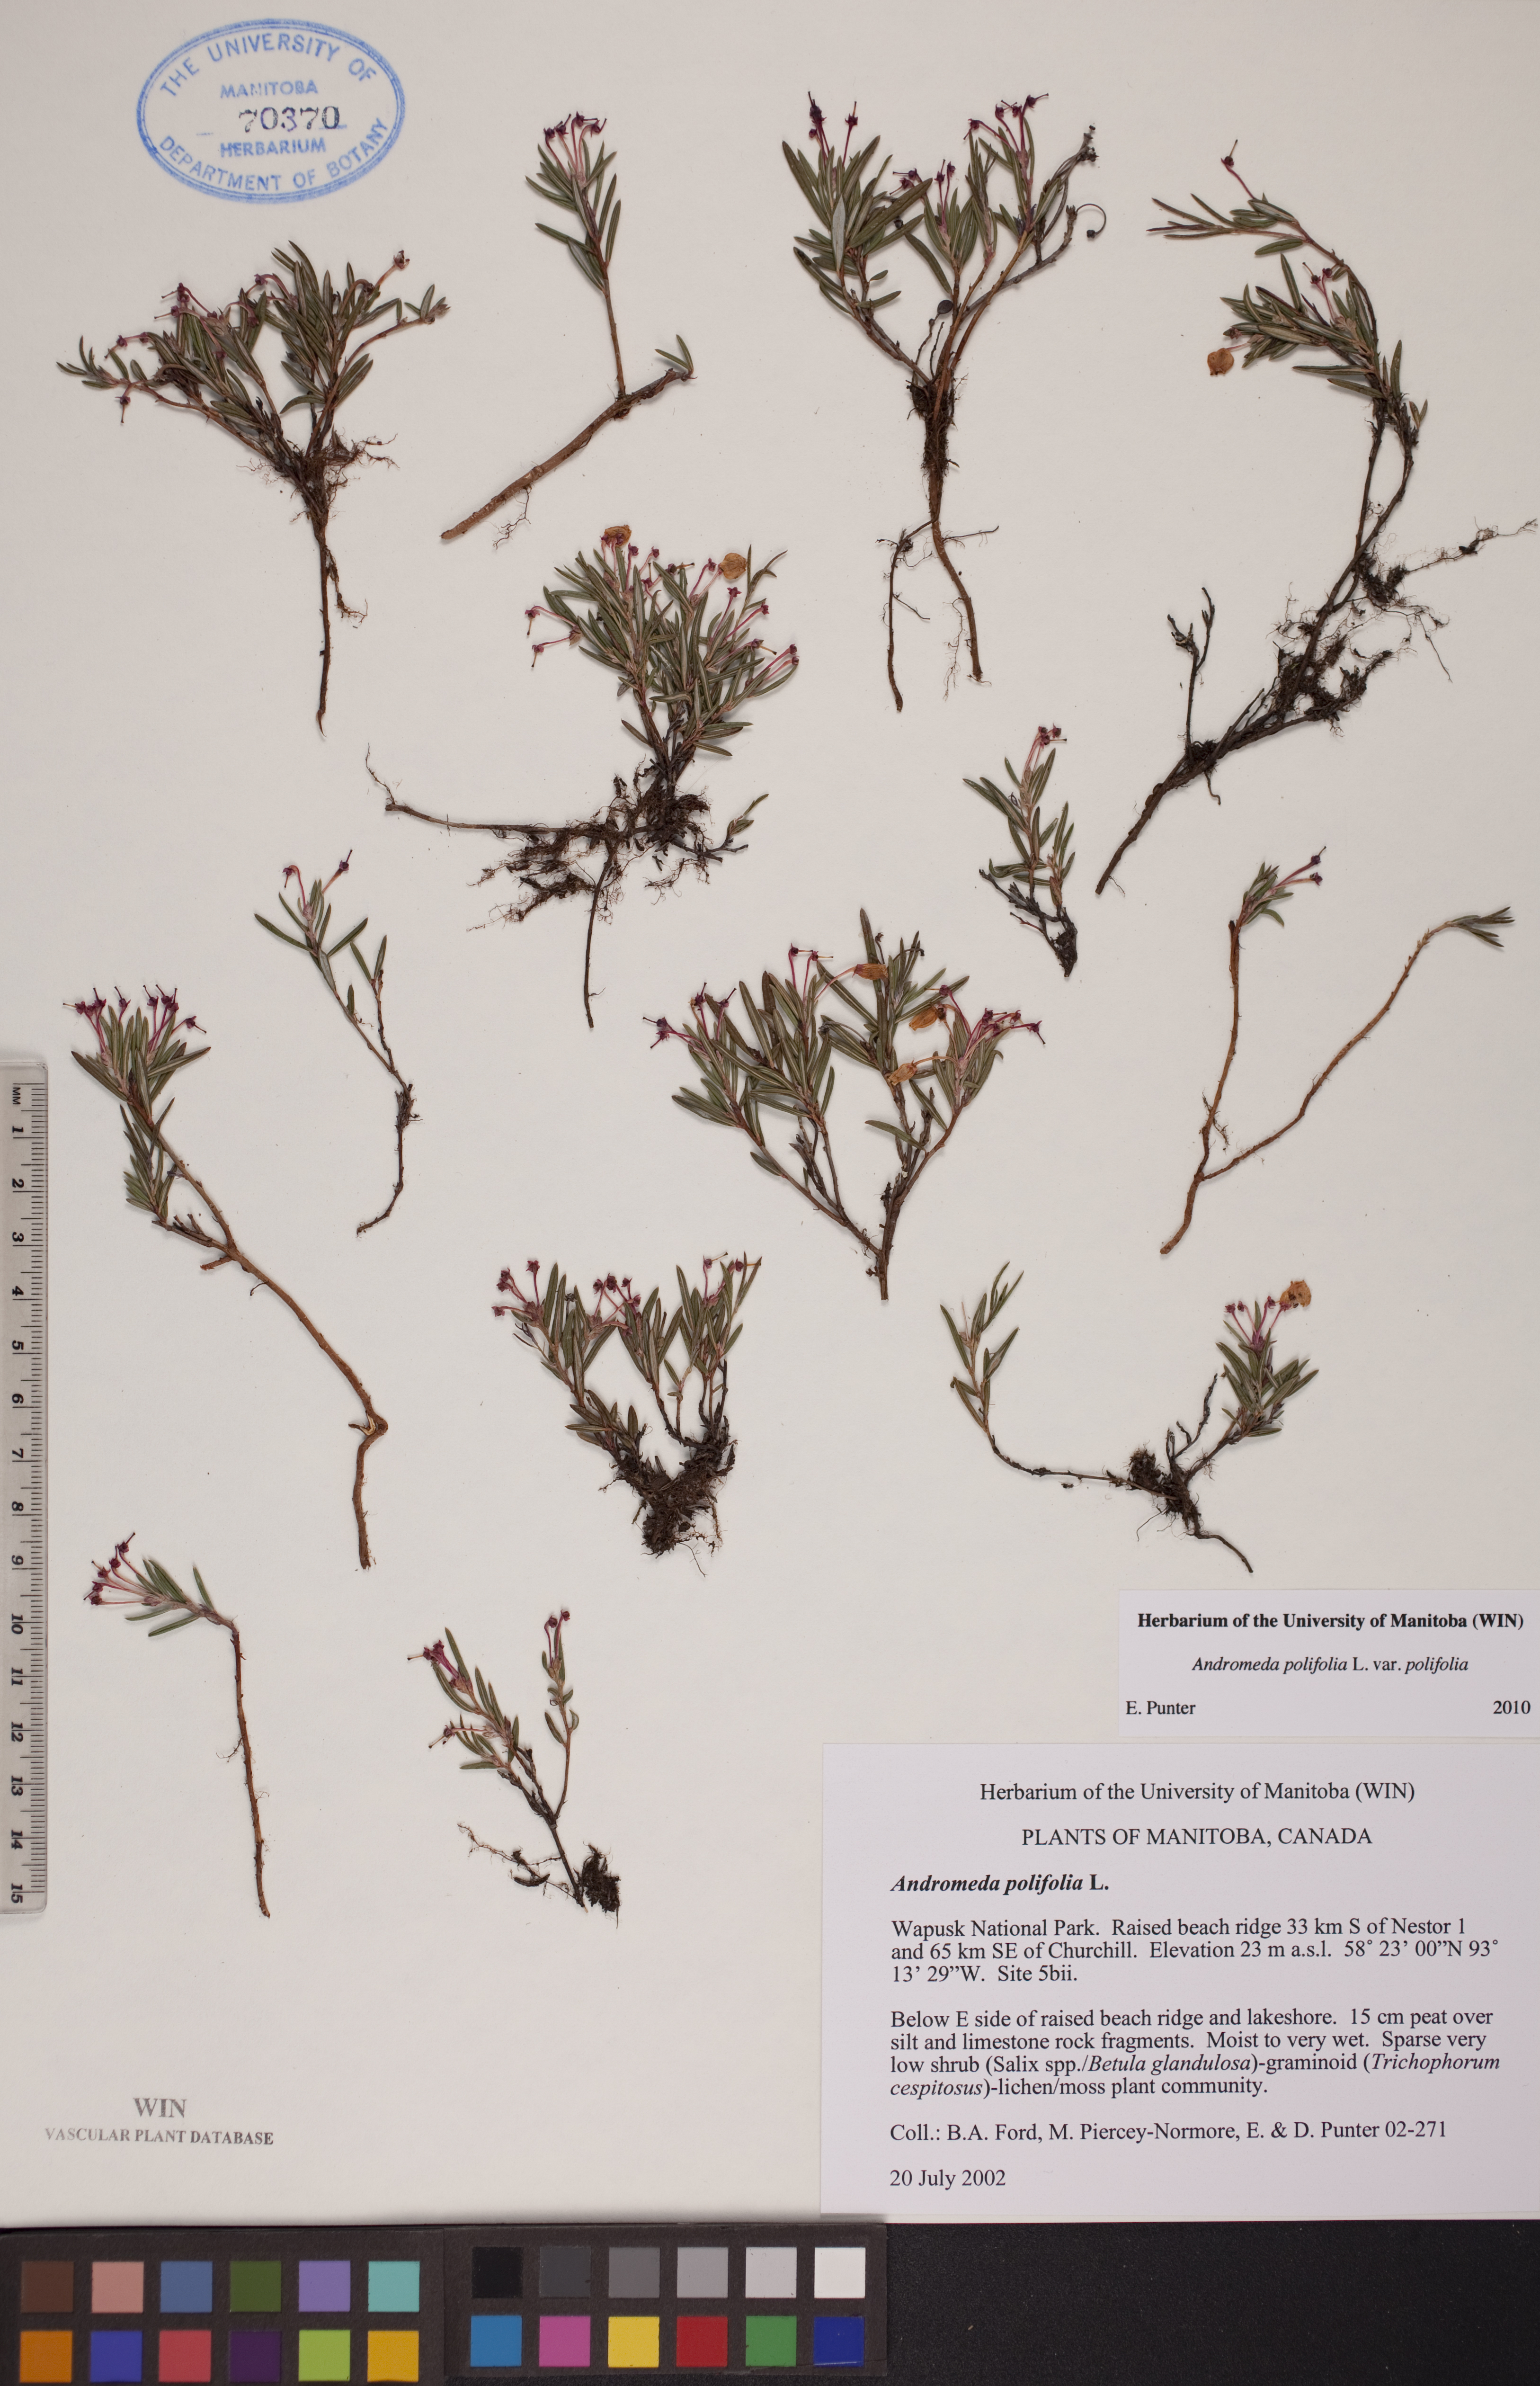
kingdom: Plantae
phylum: Tracheophyta
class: Magnoliopsida
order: Ericales
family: Ericaceae
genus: Andromeda
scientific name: Andromeda polifolia
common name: Bog-rosemary
